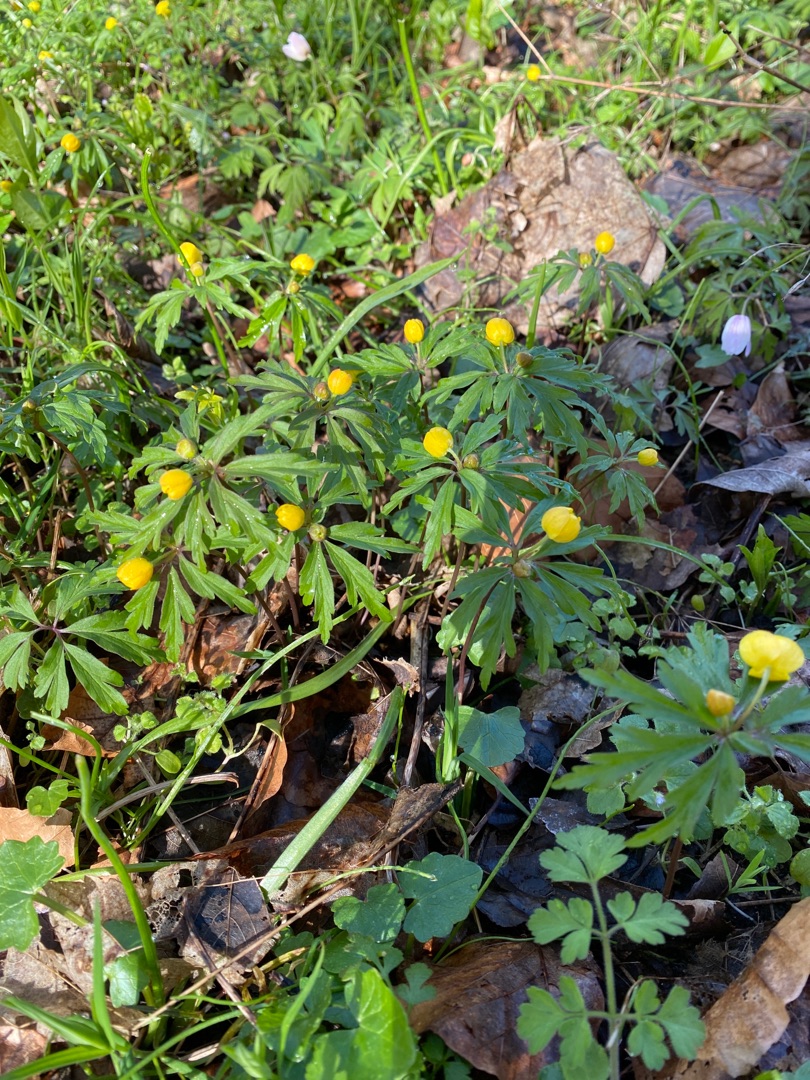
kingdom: Plantae
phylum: Tracheophyta
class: Magnoliopsida
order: Ranunculales
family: Ranunculaceae
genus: Anemone
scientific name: Anemone ranunculoides
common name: Gul anemone
